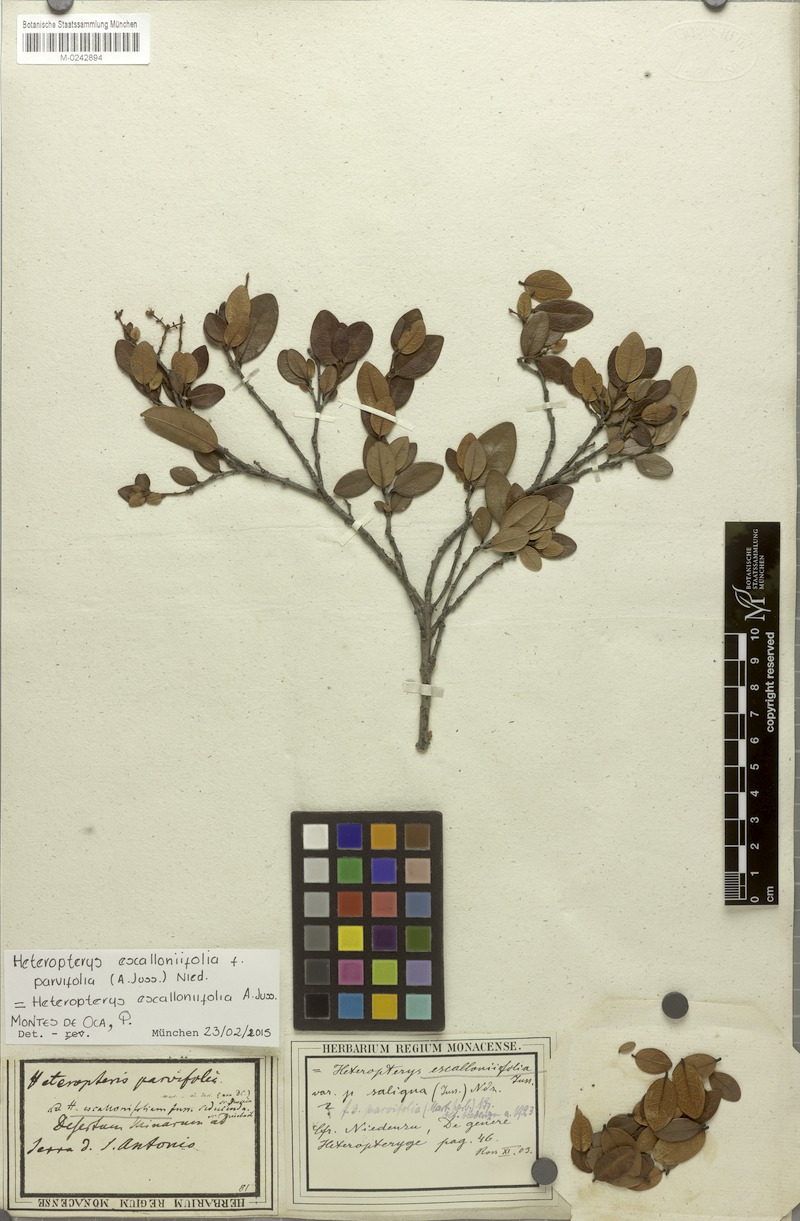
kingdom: Plantae
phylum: Tracheophyta
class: Magnoliopsida
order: Malpighiales
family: Malpighiaceae
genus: Heteropterys
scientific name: Heteropterys escalloniifolia
